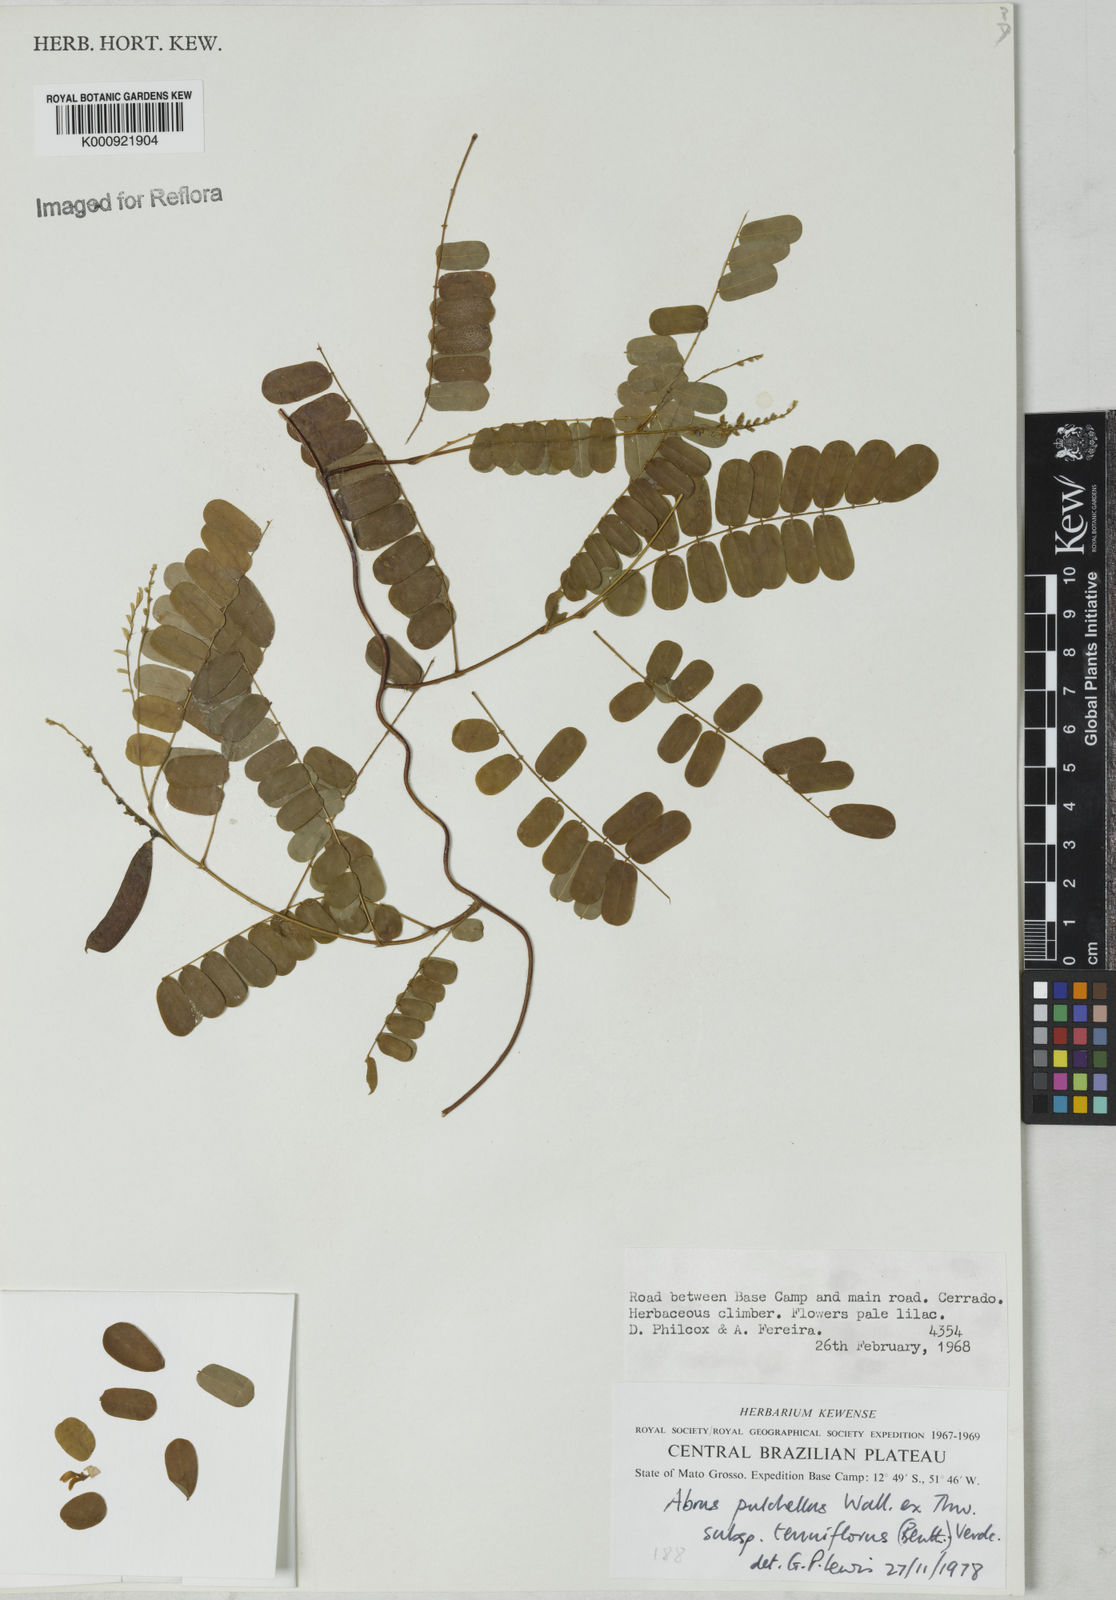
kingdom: Plantae
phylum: Tracheophyta
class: Magnoliopsida
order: Fabales
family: Fabaceae
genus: Abrus
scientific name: Abrus melanospermus
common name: Licorice-root
